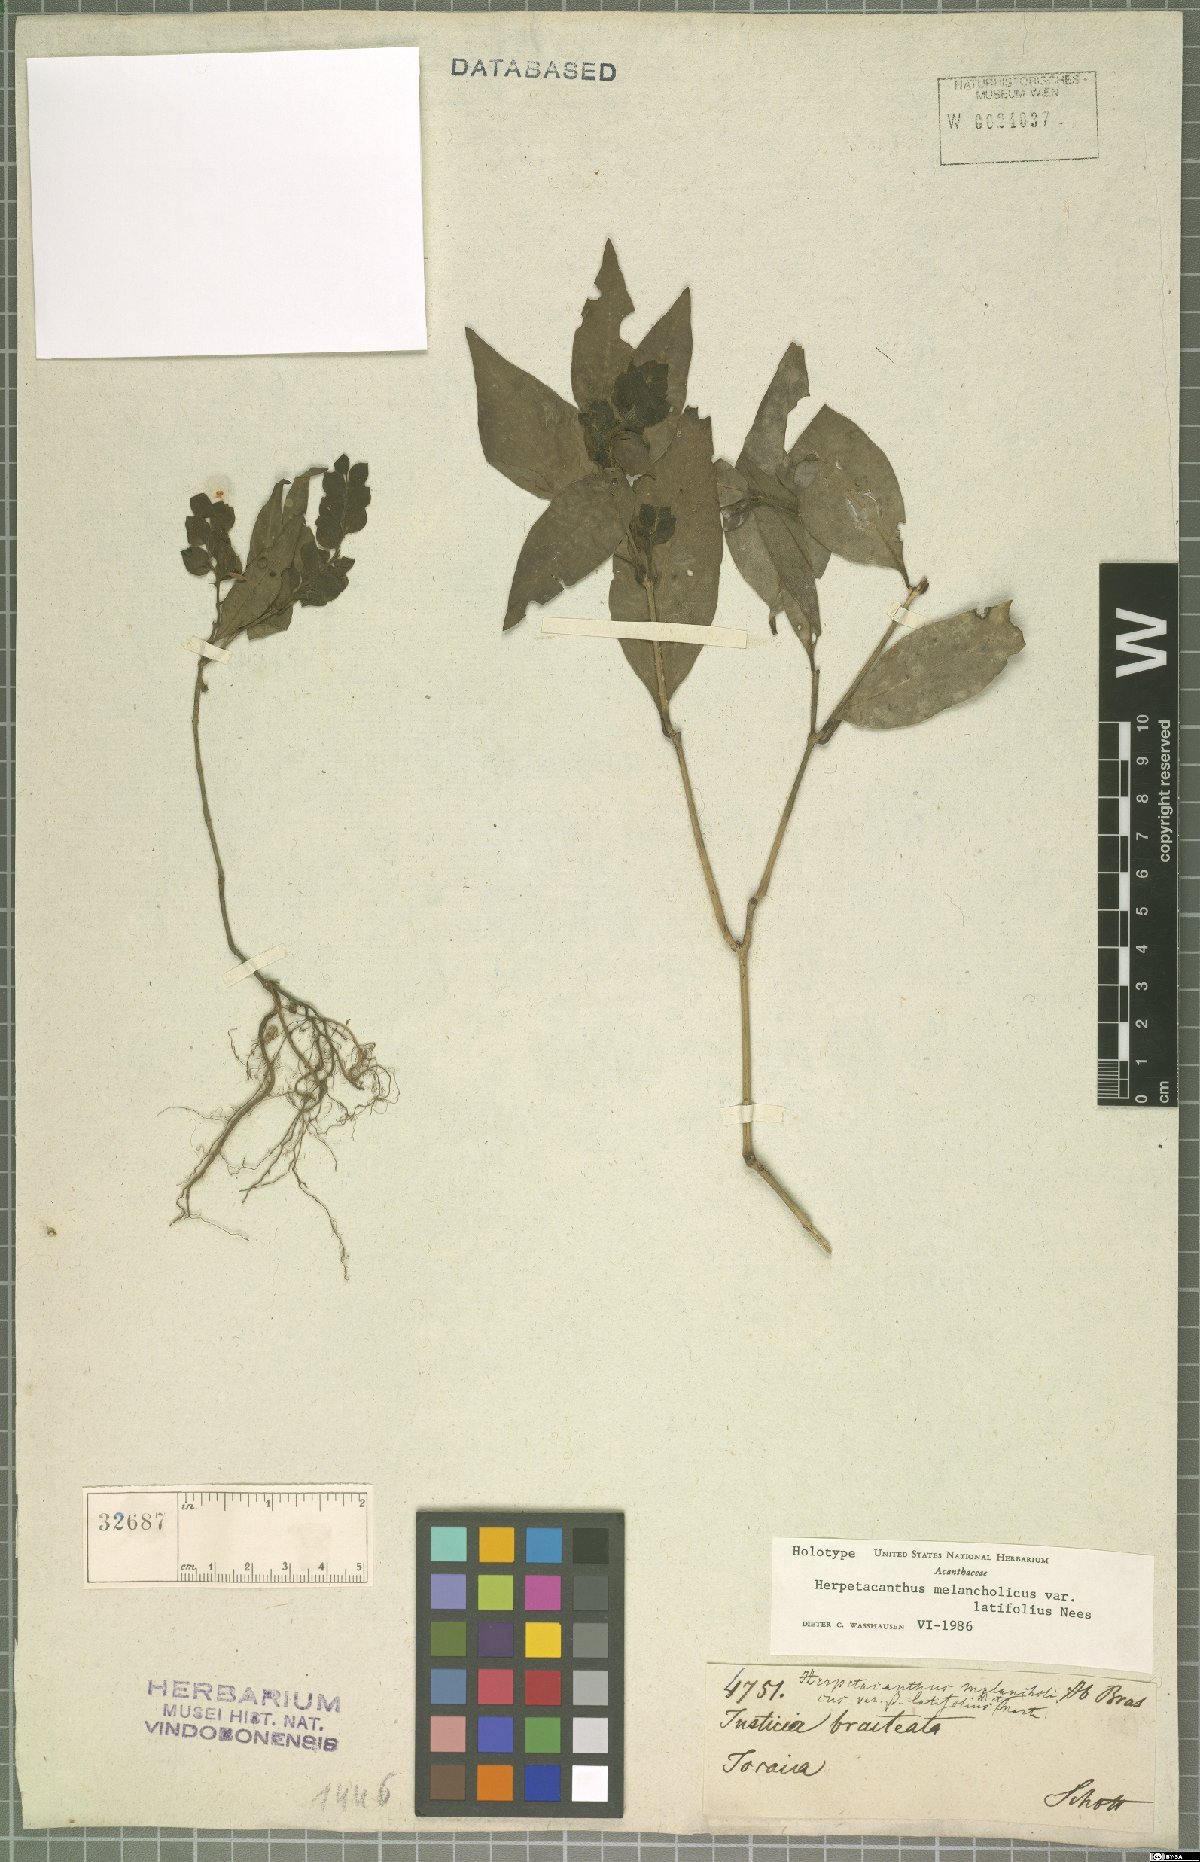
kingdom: Plantae
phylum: Tracheophyta
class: Magnoliopsida
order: Lamiales
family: Acanthaceae
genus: Herpetacanthus
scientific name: Herpetacanthus melancholicus
